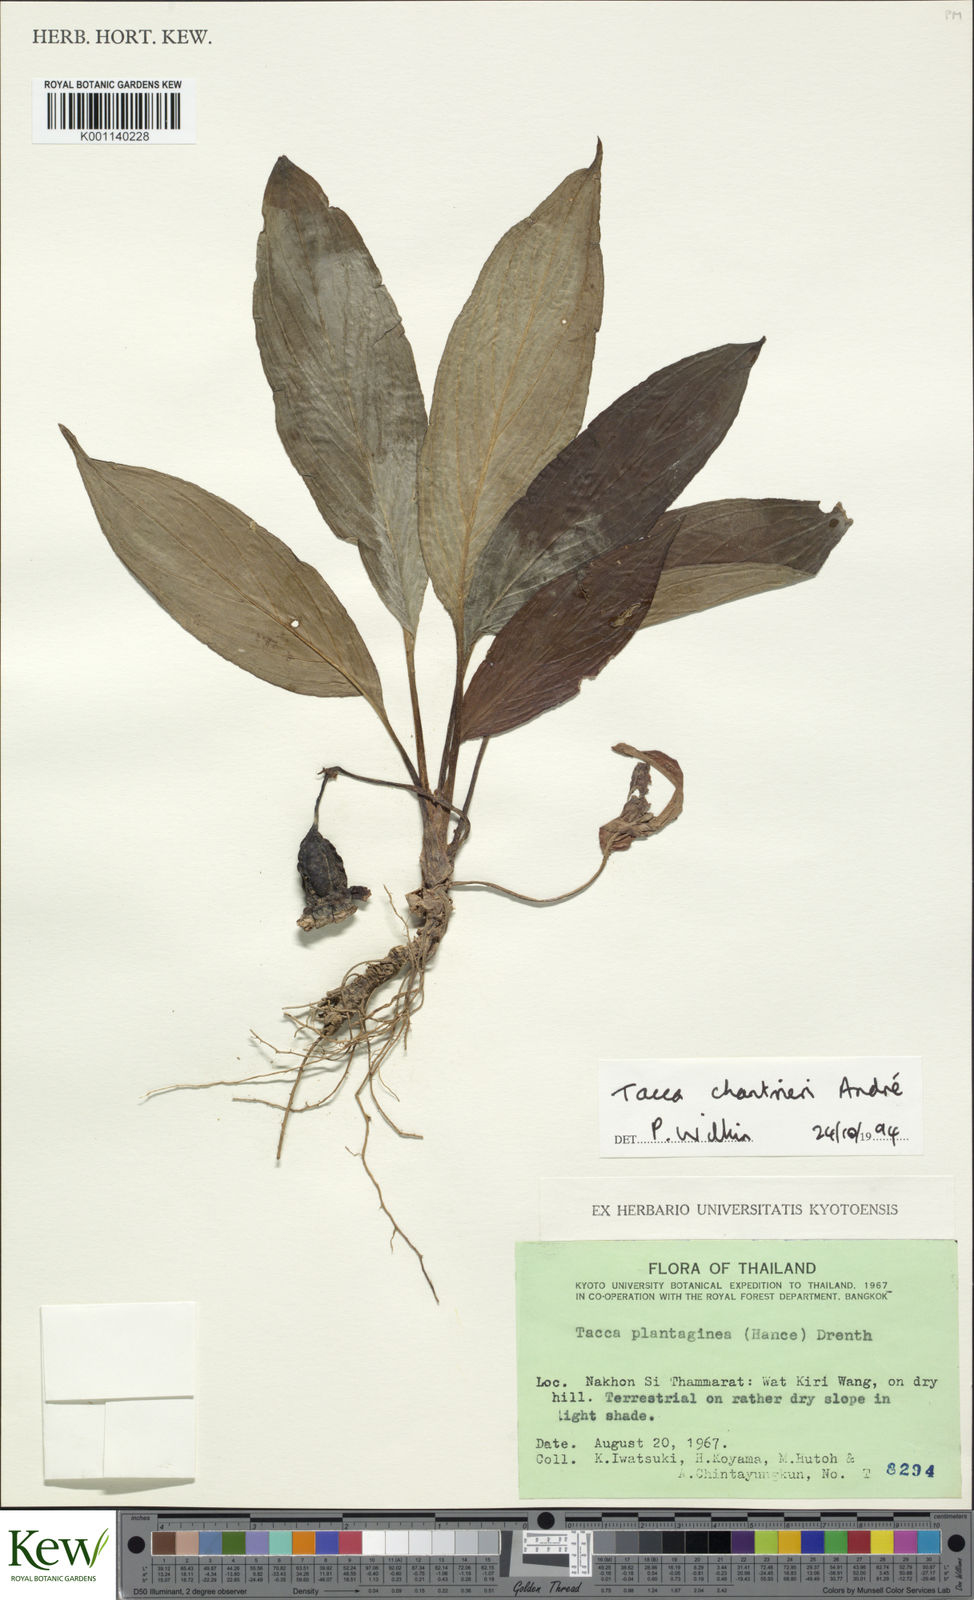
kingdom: Plantae
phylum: Tracheophyta
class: Liliopsida
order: Dioscoreales
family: Dioscoreaceae
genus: Tacca
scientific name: Tacca
